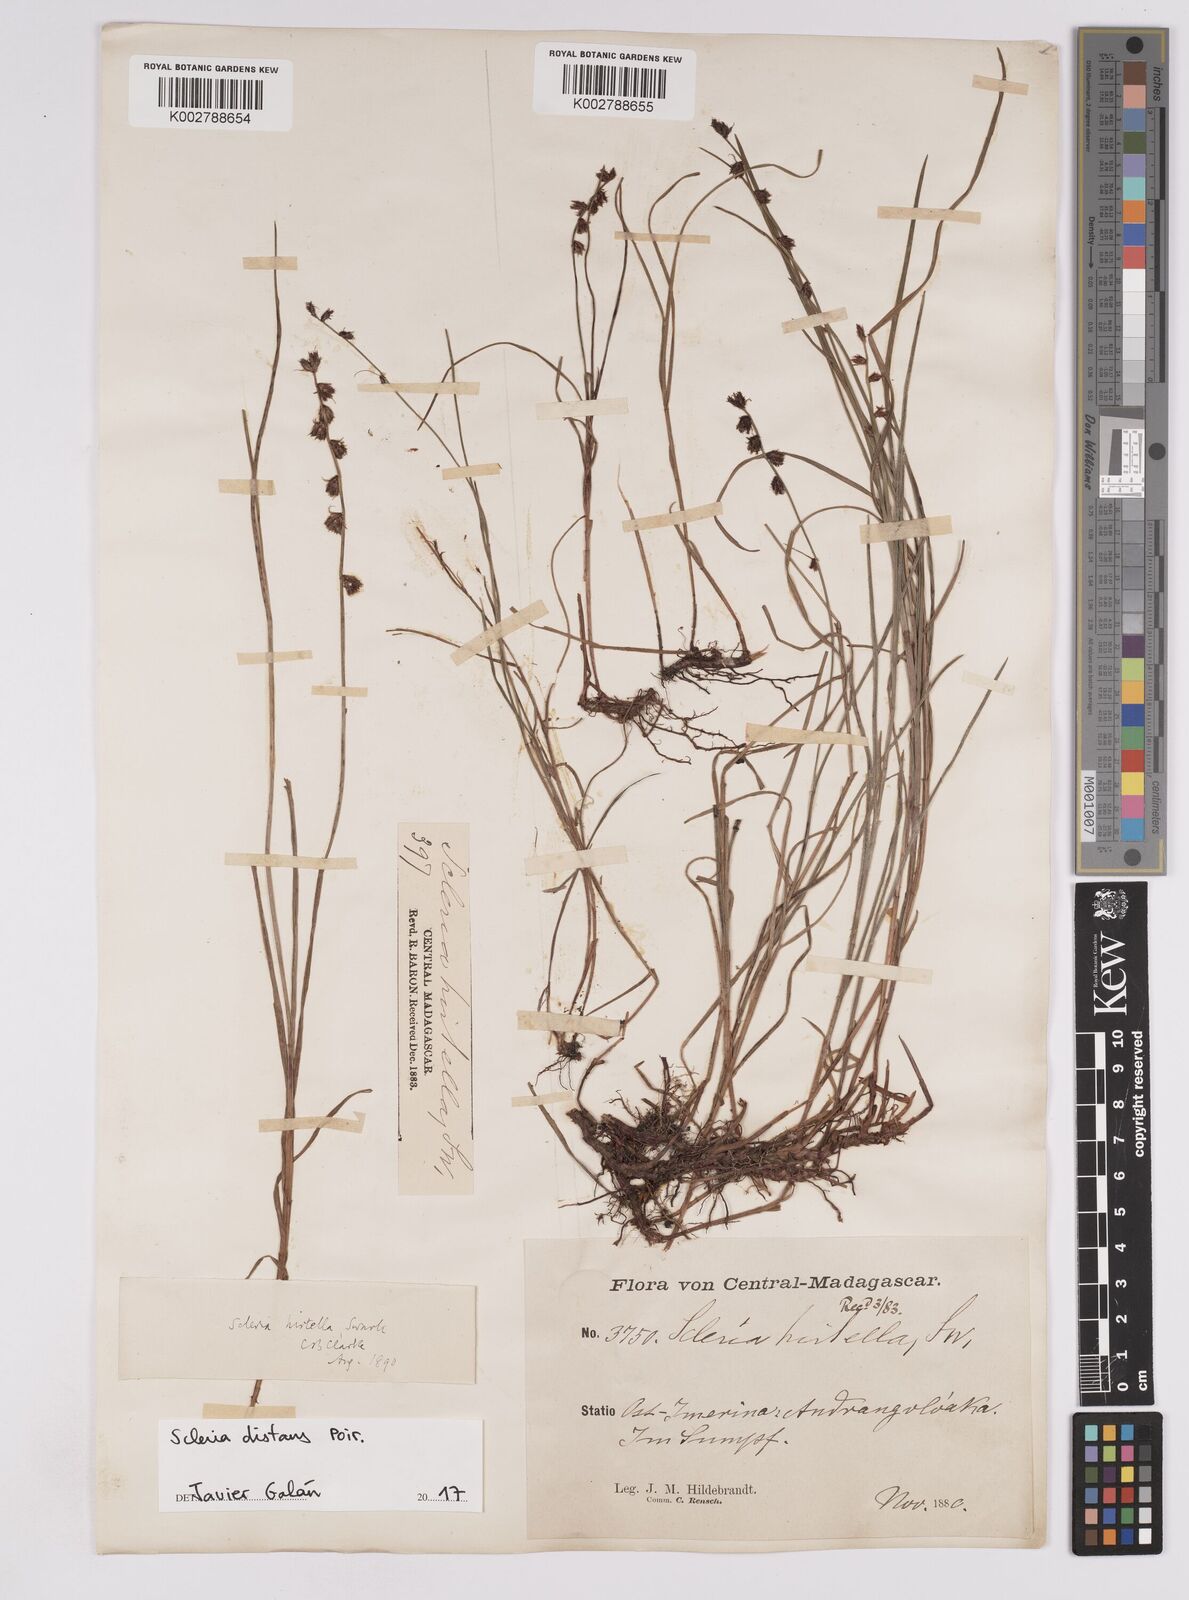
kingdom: Plantae
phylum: Tracheophyta
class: Liliopsida
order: Poales
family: Cyperaceae
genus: Scleria
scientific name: Scleria distans
